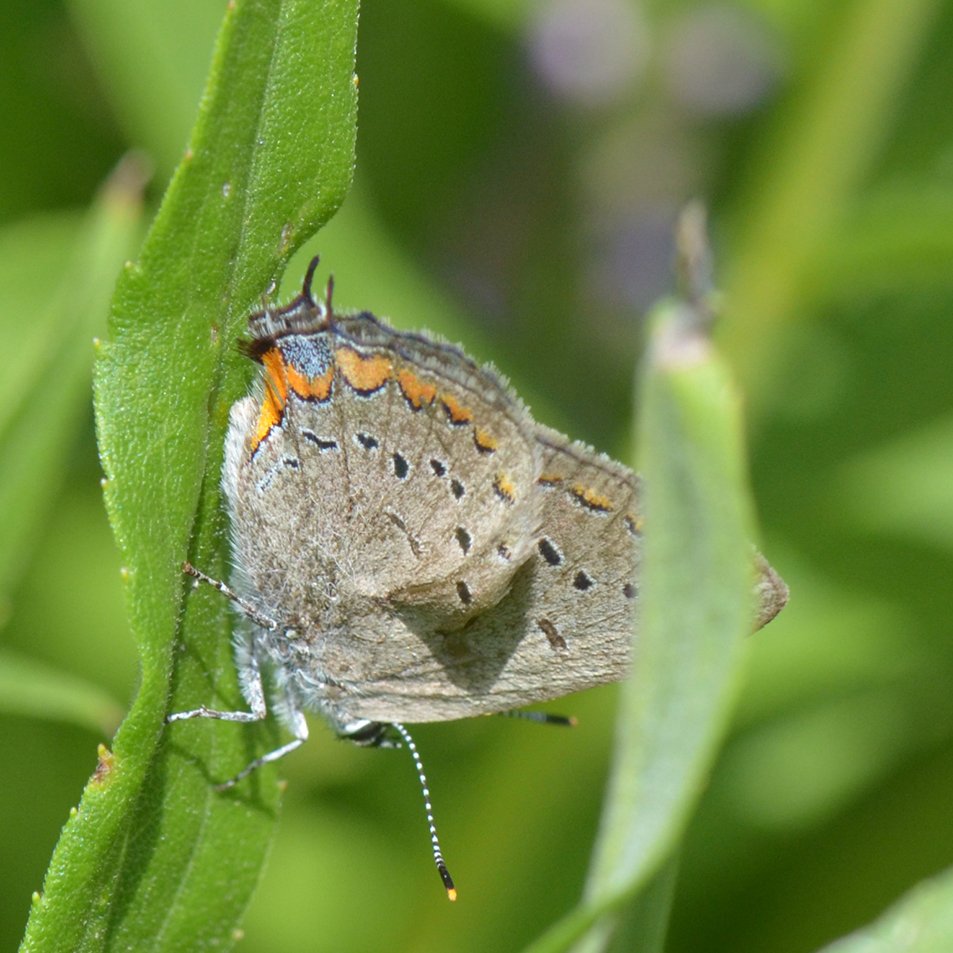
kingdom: Animalia
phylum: Arthropoda
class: Insecta
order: Lepidoptera
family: Lycaenidae
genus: Strymon
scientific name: Strymon acadica
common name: Acadian Hairstreak
